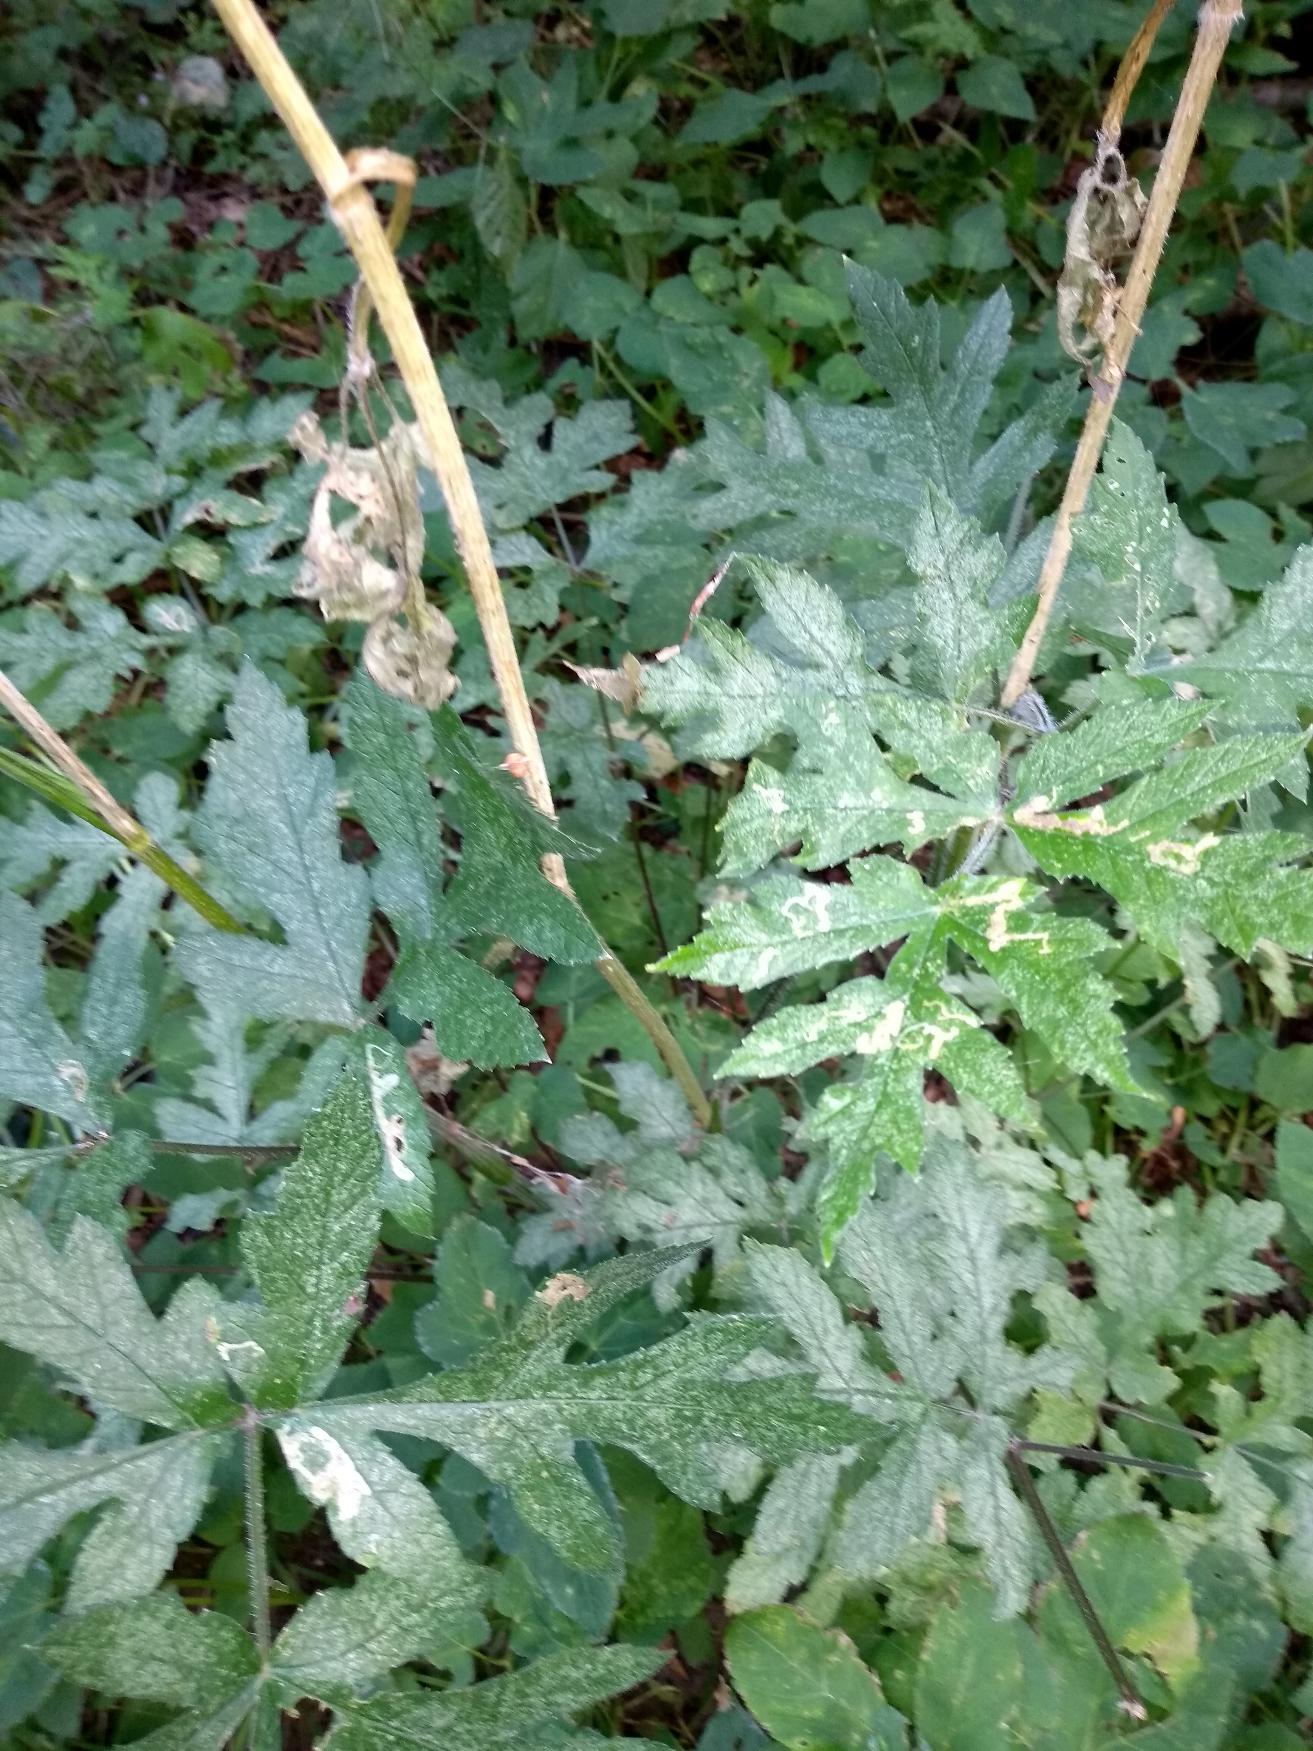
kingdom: Plantae
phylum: Tracheophyta
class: Magnoliopsida
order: Asterales
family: Asteraceae
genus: Tanacetum
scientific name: Tanacetum macrophyllum
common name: Røllike-matrem
